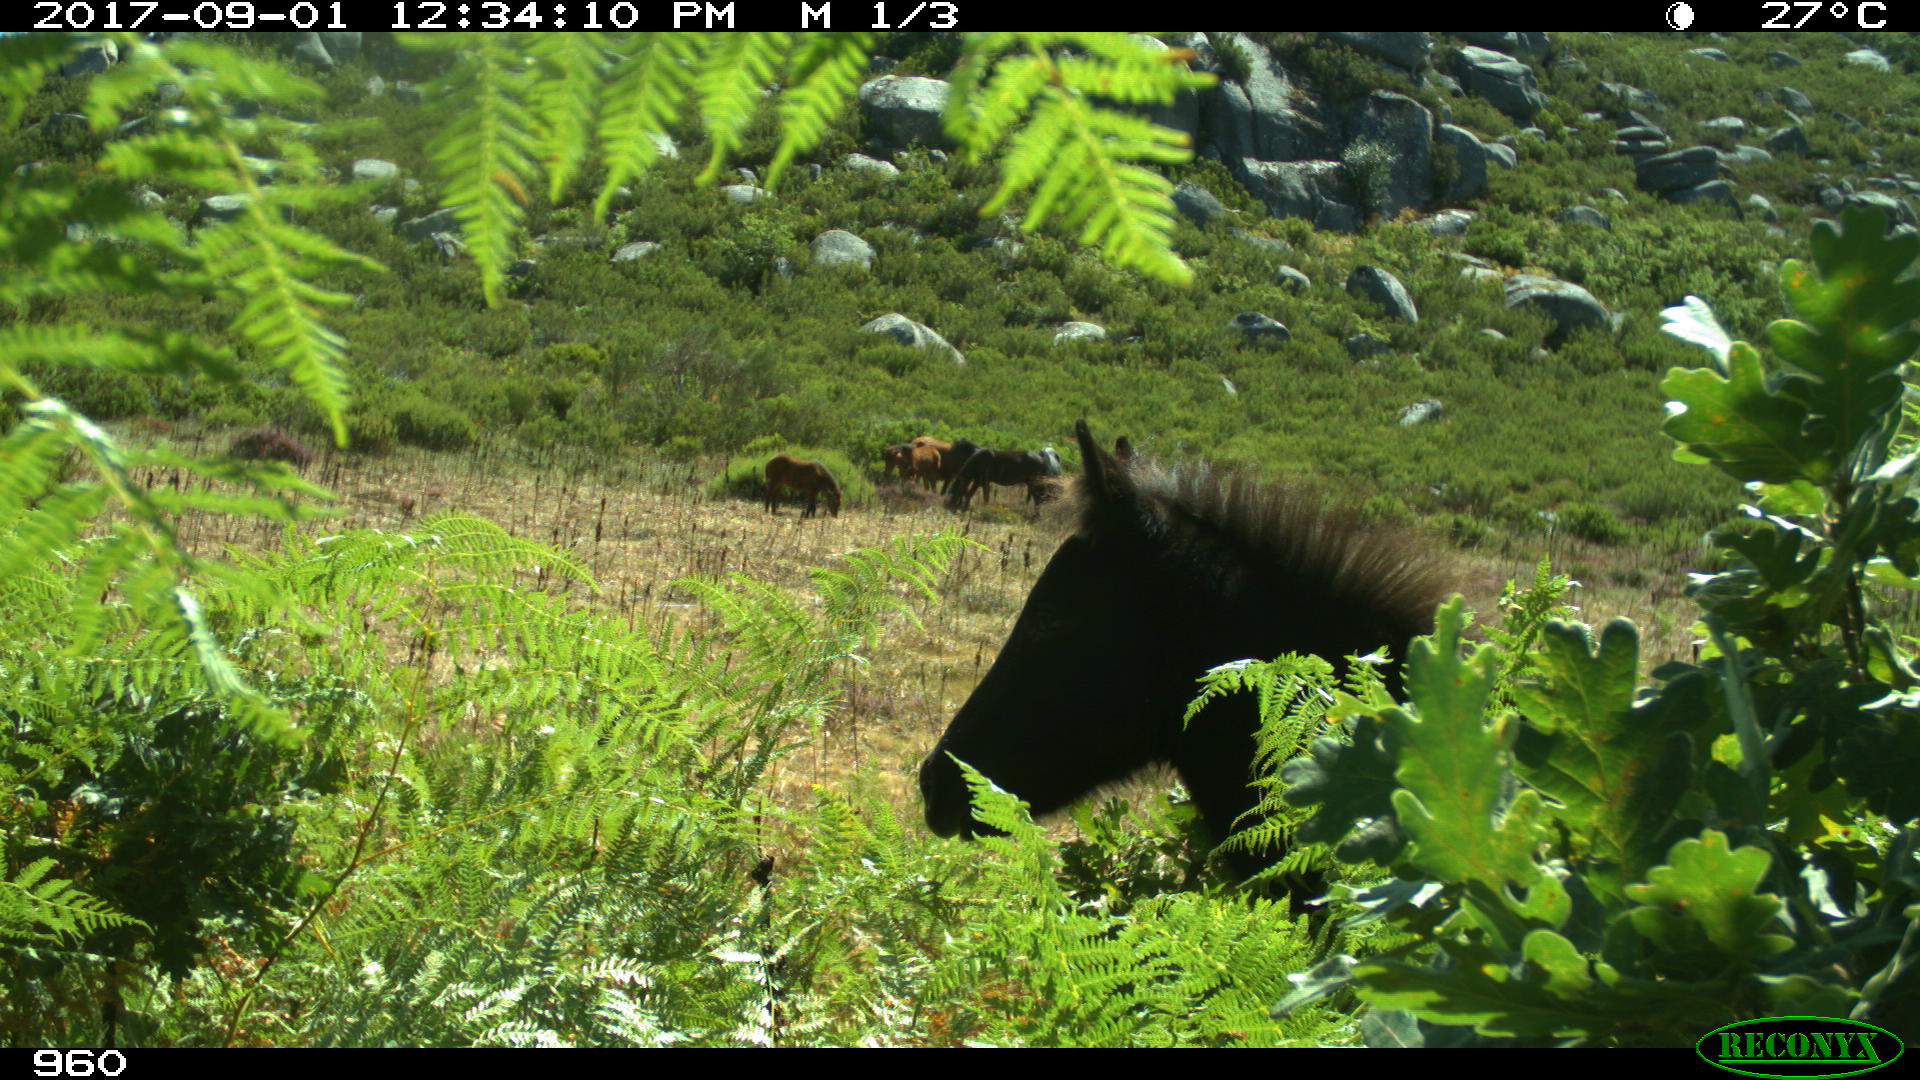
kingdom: Animalia
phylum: Chordata
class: Mammalia
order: Perissodactyla
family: Equidae
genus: Equus
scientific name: Equus caballus
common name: Horse
